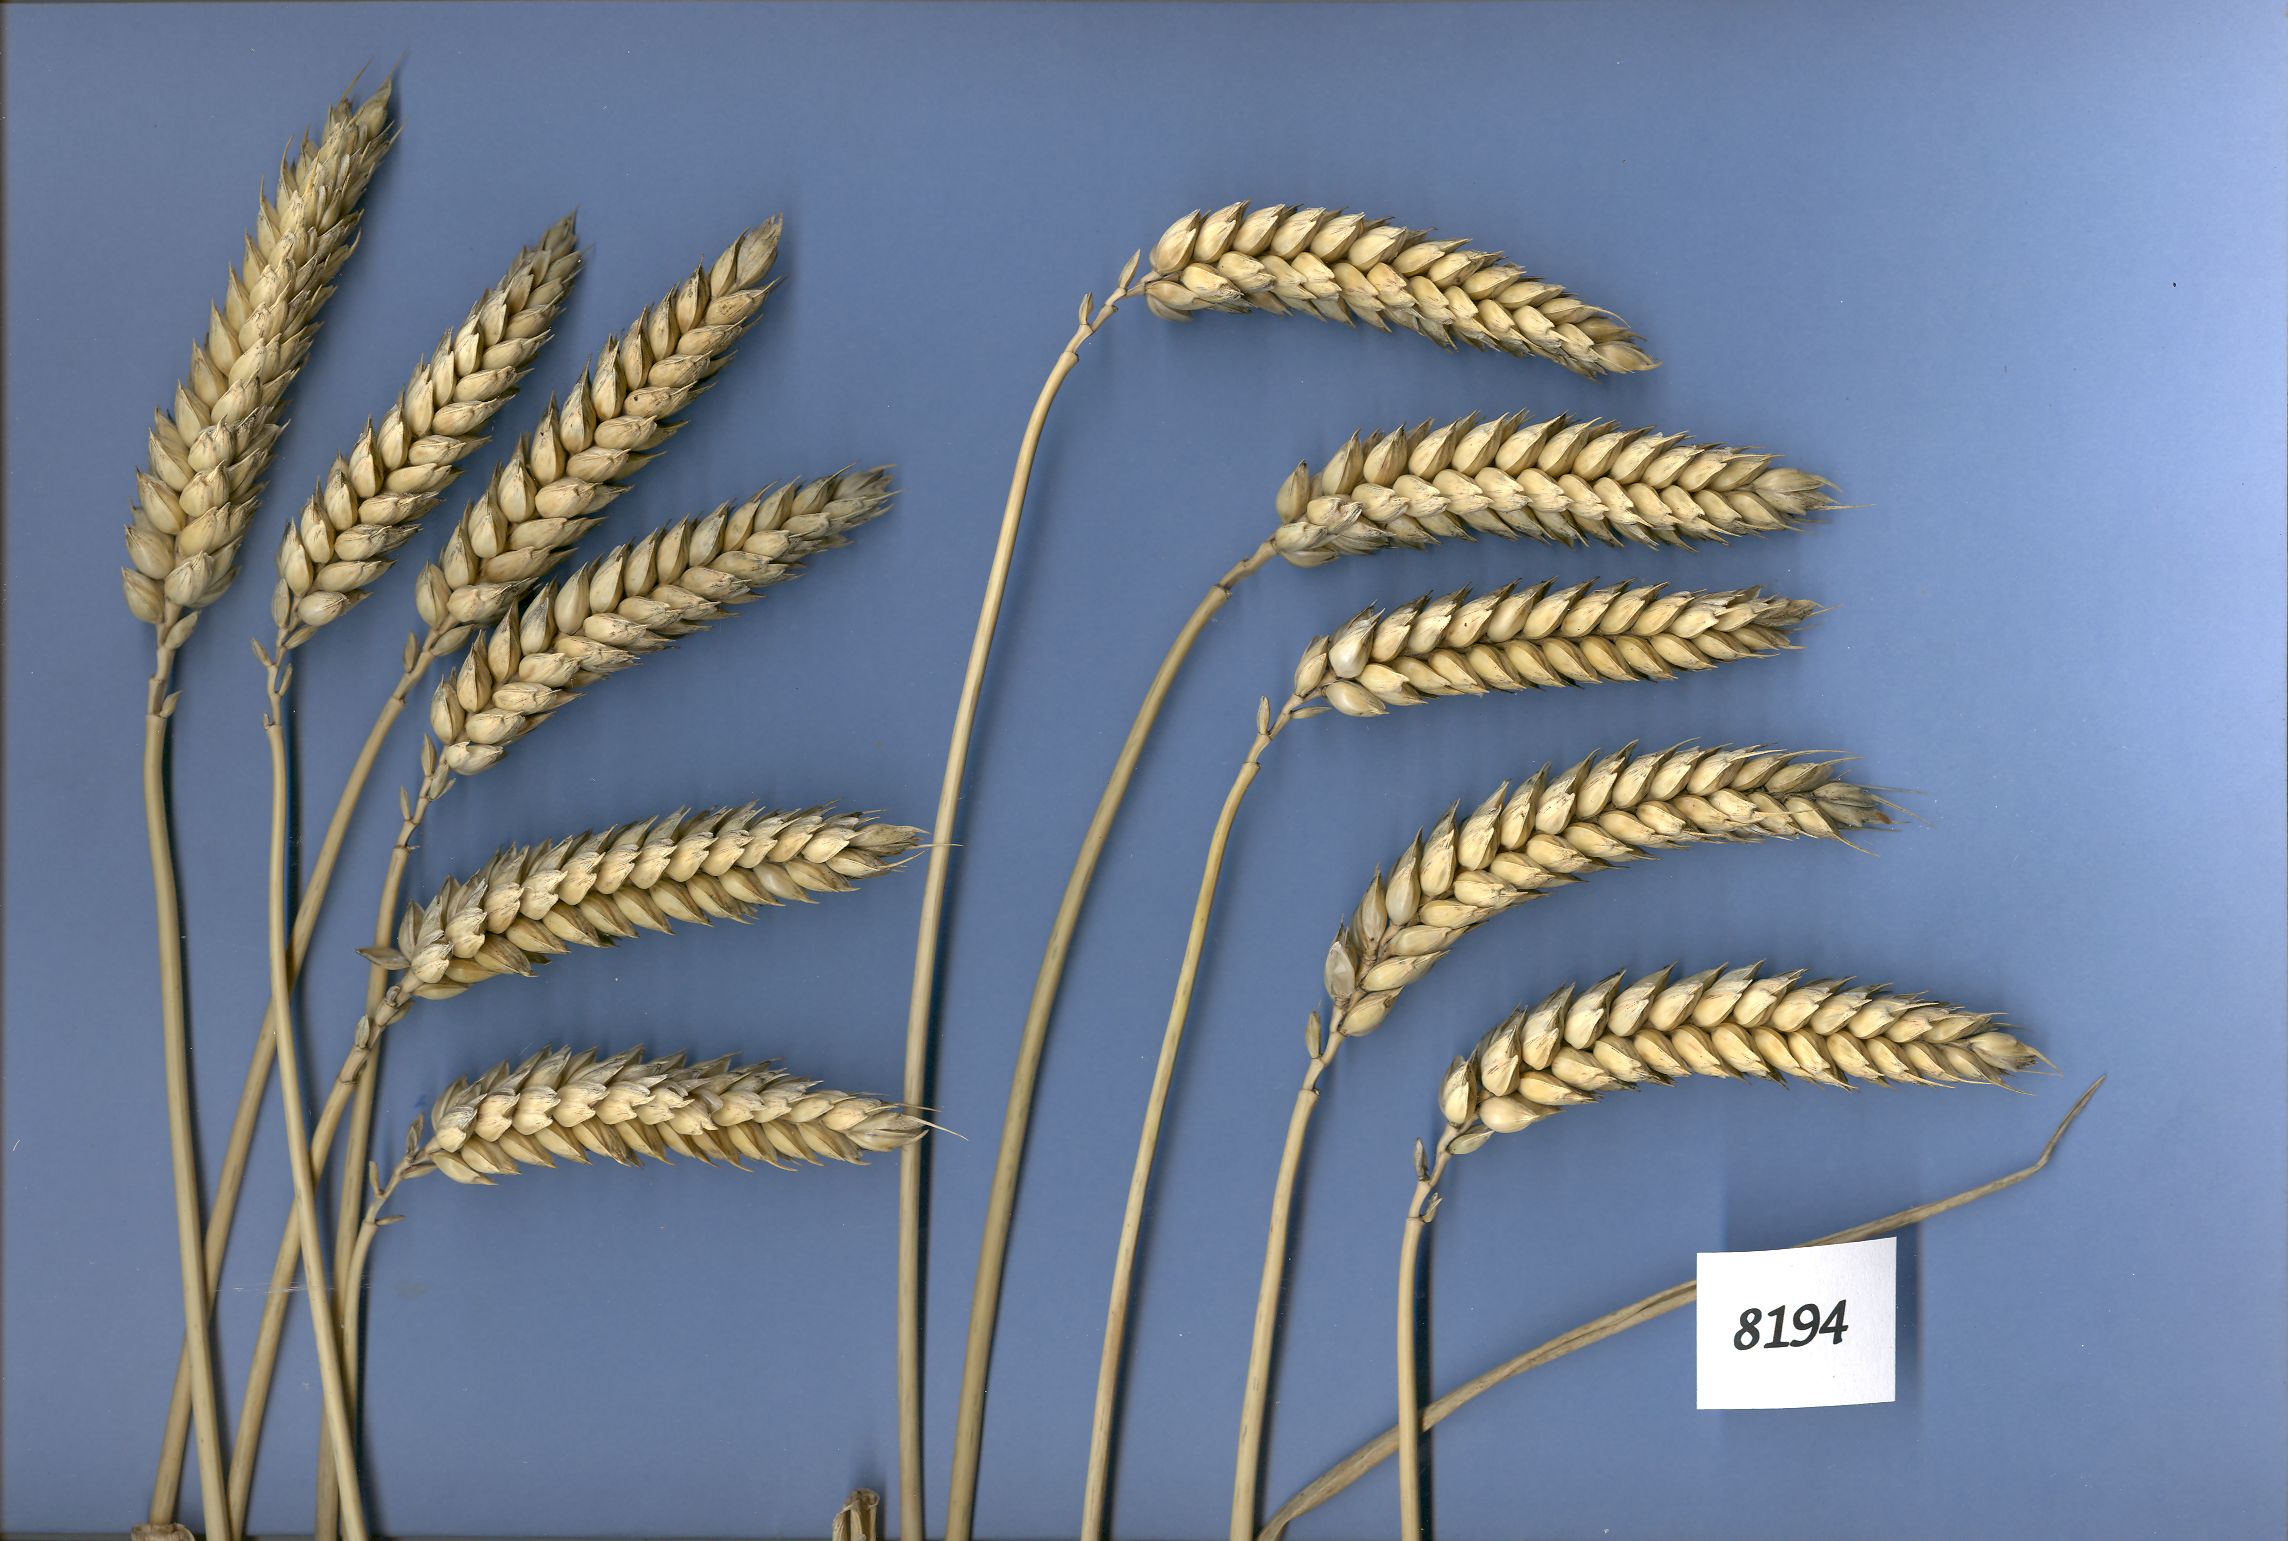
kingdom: Plantae
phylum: Tracheophyta
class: Liliopsida
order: Poales
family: Poaceae
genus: Triticum
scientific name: Triticum aestivum
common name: Common wheat
